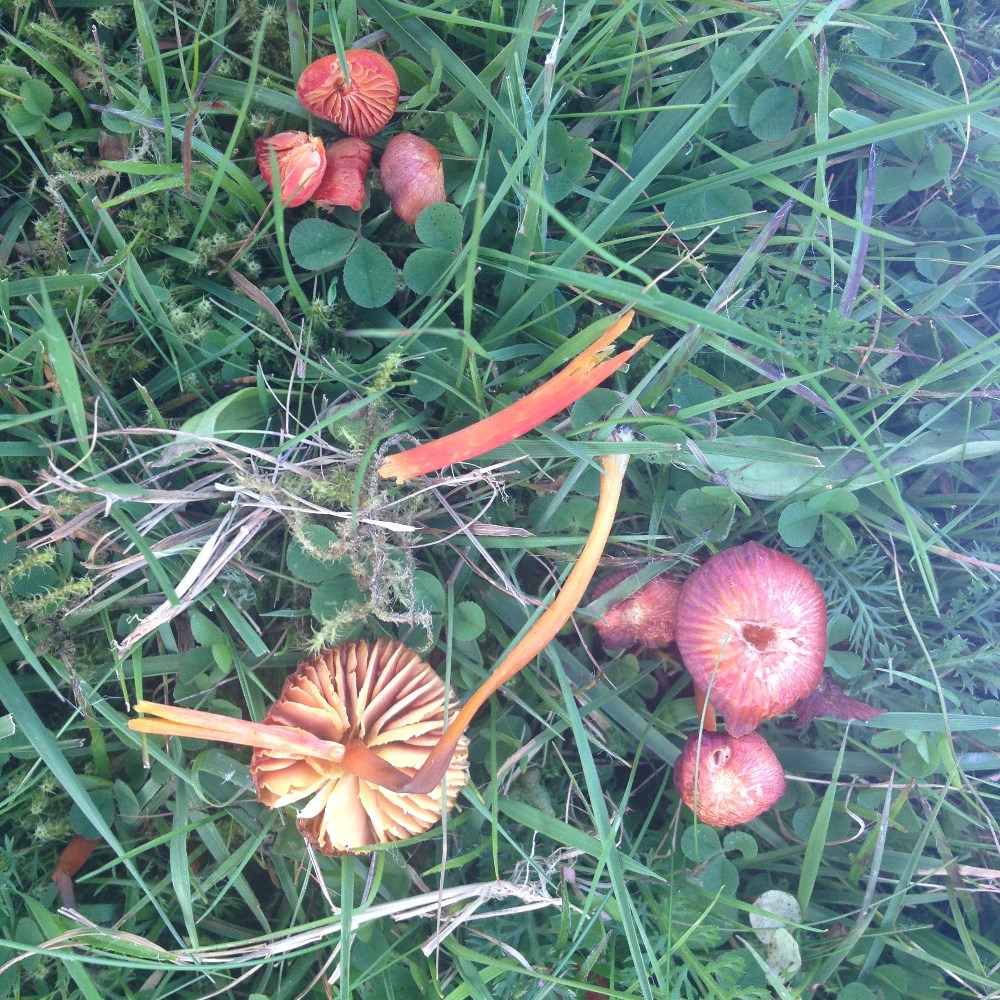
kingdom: Fungi
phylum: Basidiomycota
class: Agaricomycetes
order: Agaricales
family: Hygrophoraceae
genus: Hygrocybe
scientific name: Hygrocybe helobia
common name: hvidløgs-vokshat
